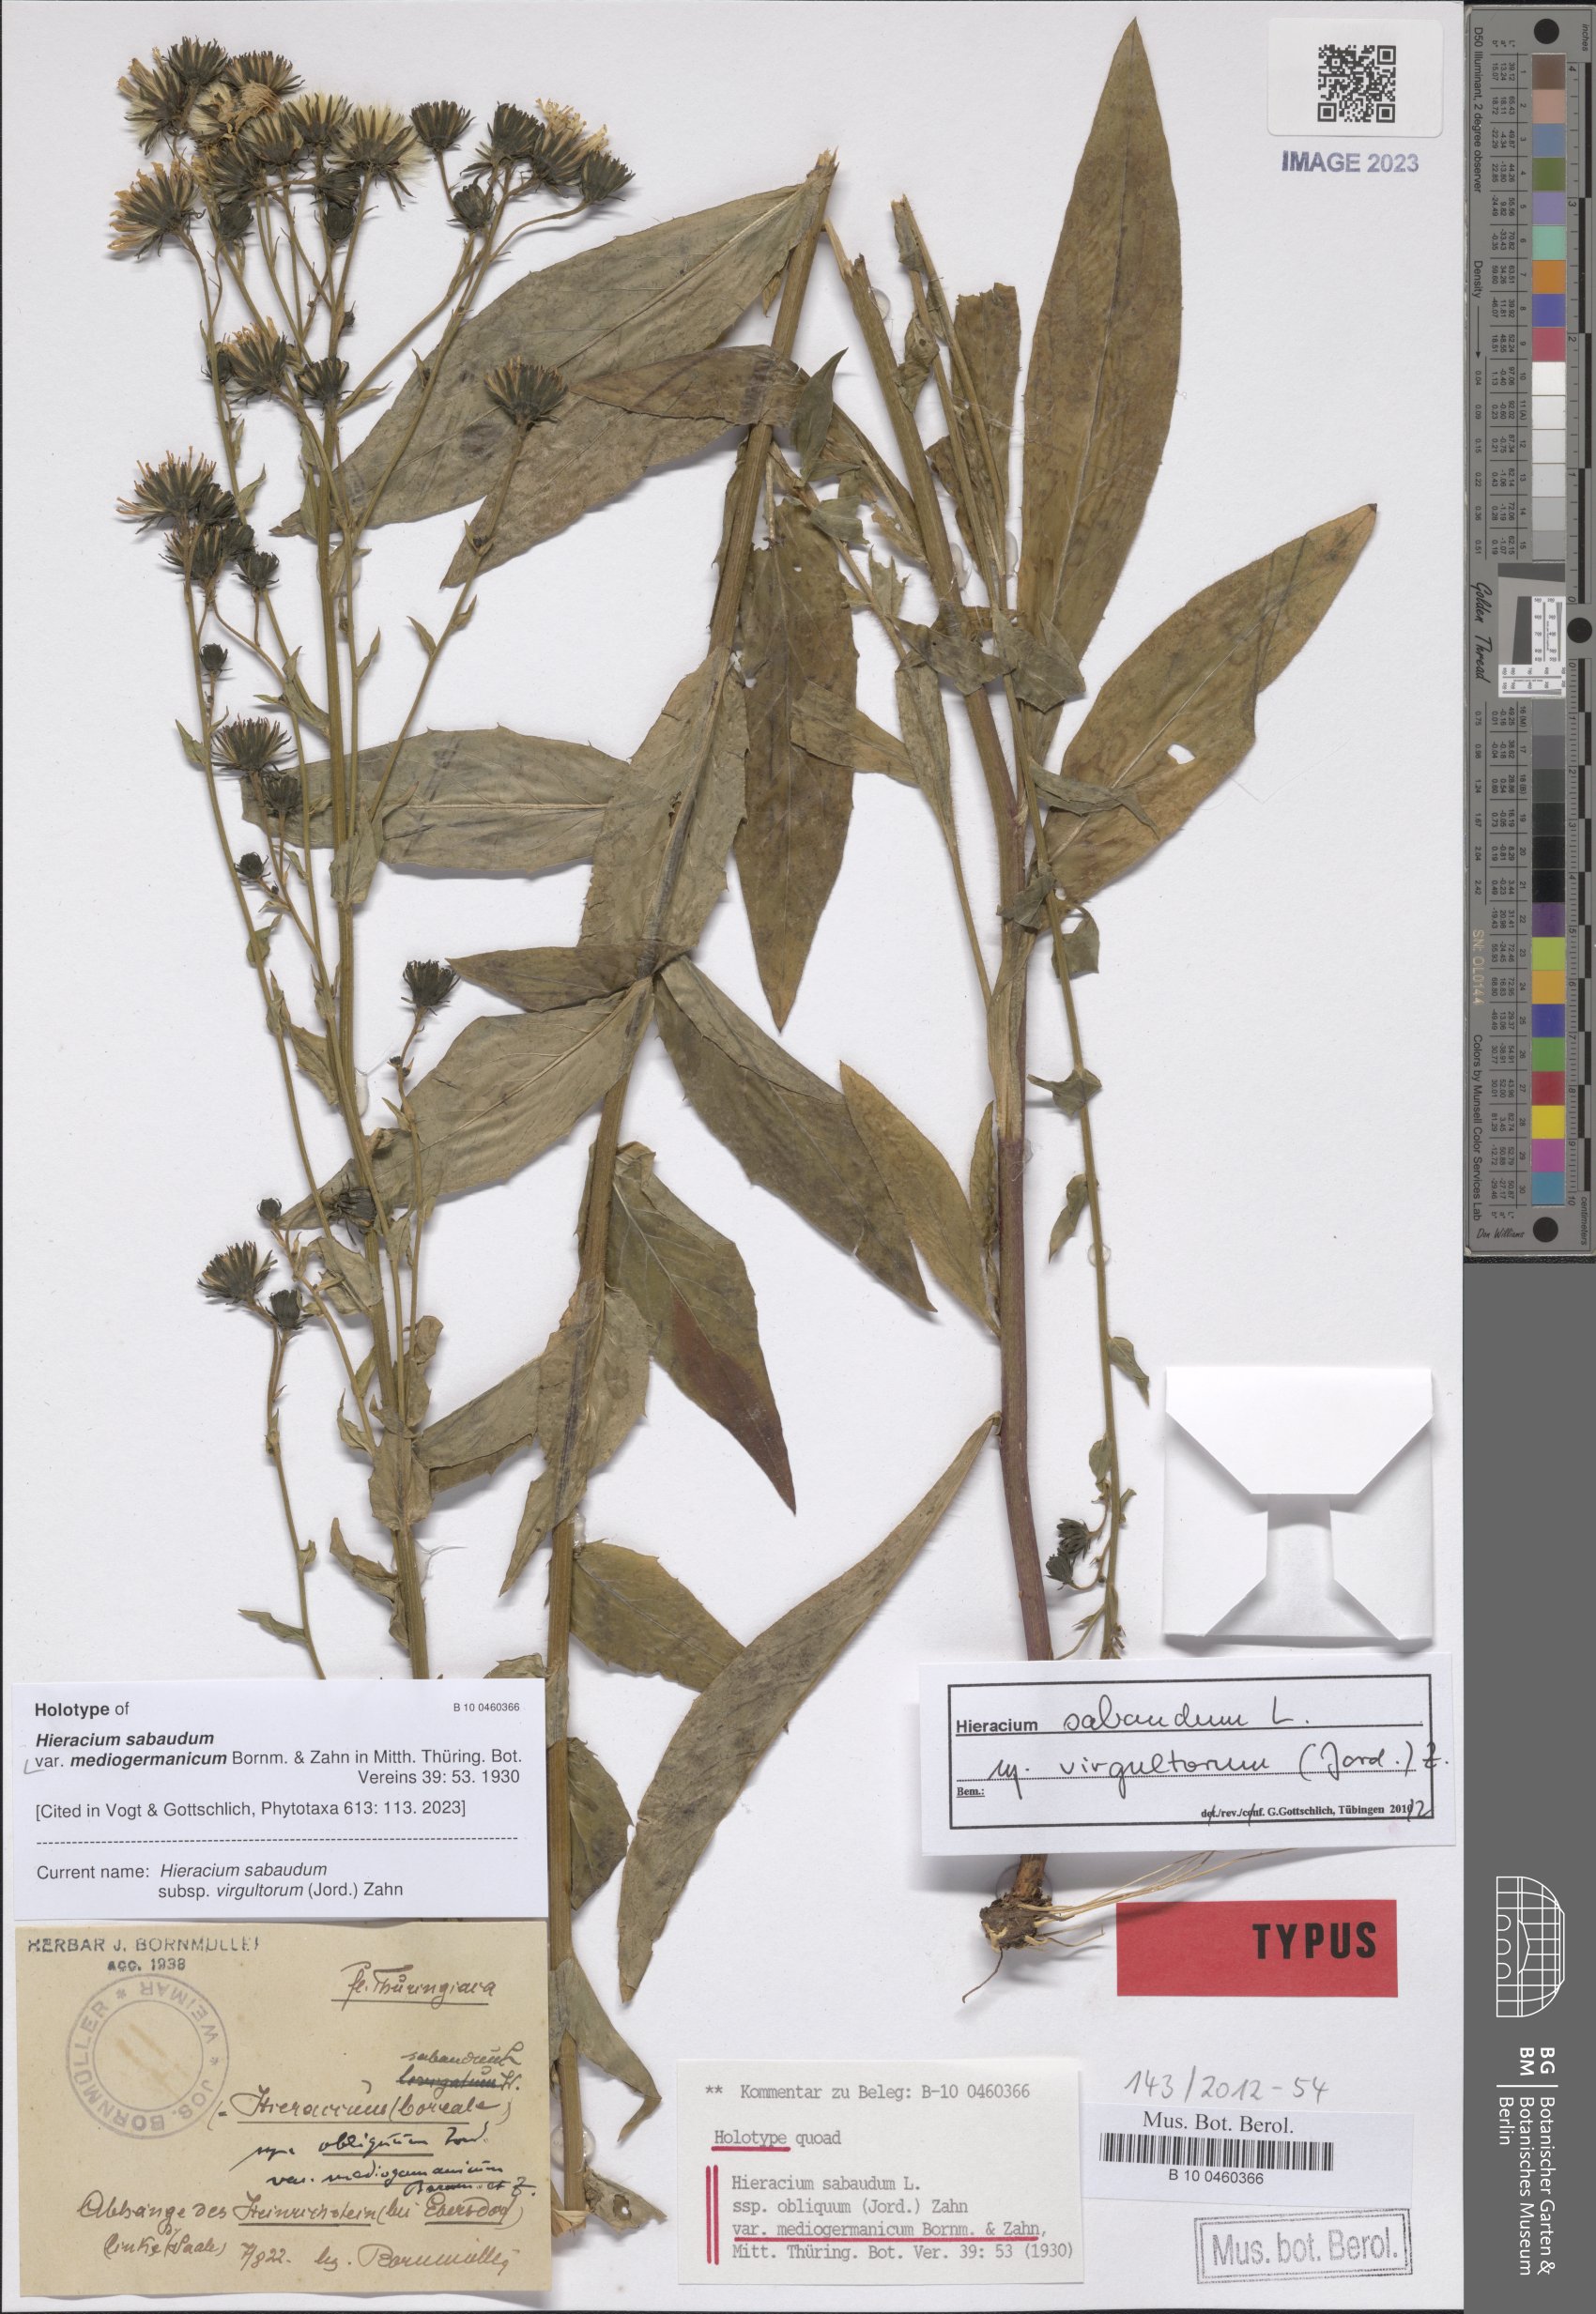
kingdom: Plantae
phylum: Tracheophyta
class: Magnoliopsida
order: Asterales
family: Asteraceae
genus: Hieracium
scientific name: Hieracium sabaudum
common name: New england hawkweed
